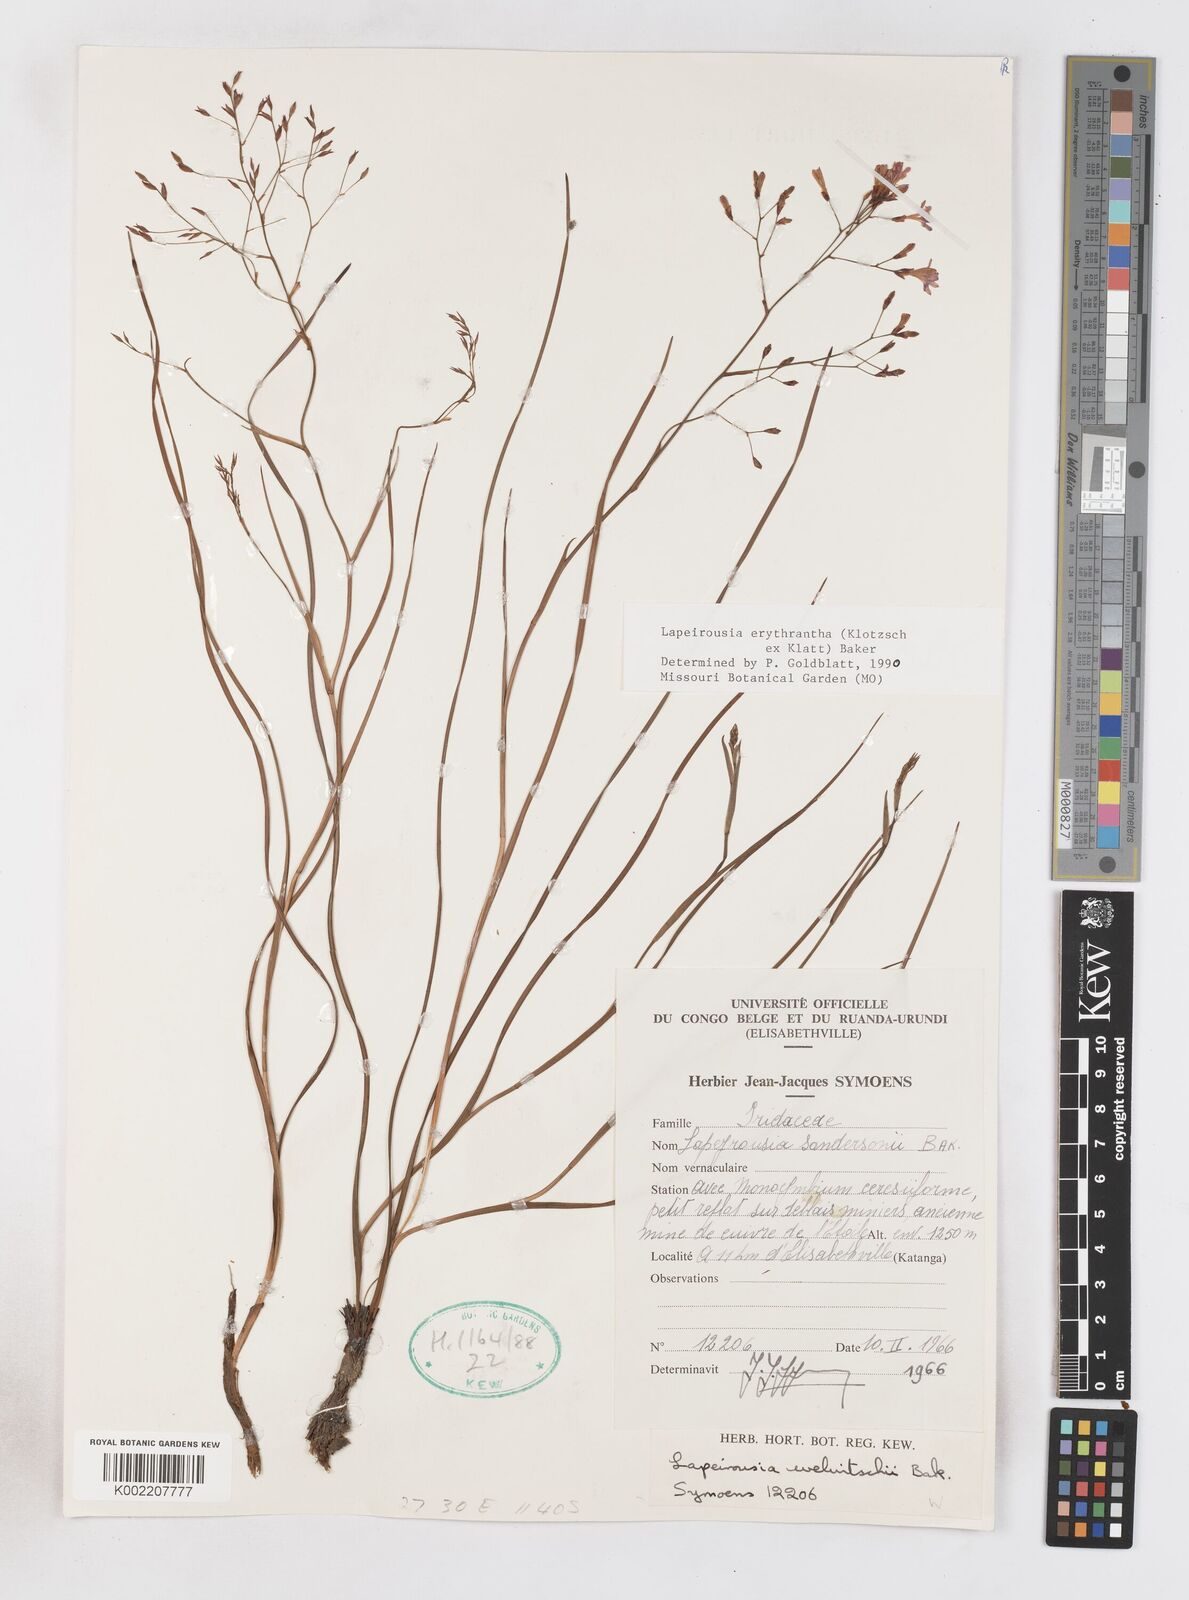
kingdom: Plantae
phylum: Tracheophyta
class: Liliopsida
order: Asparagales
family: Iridaceae
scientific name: Iridaceae
